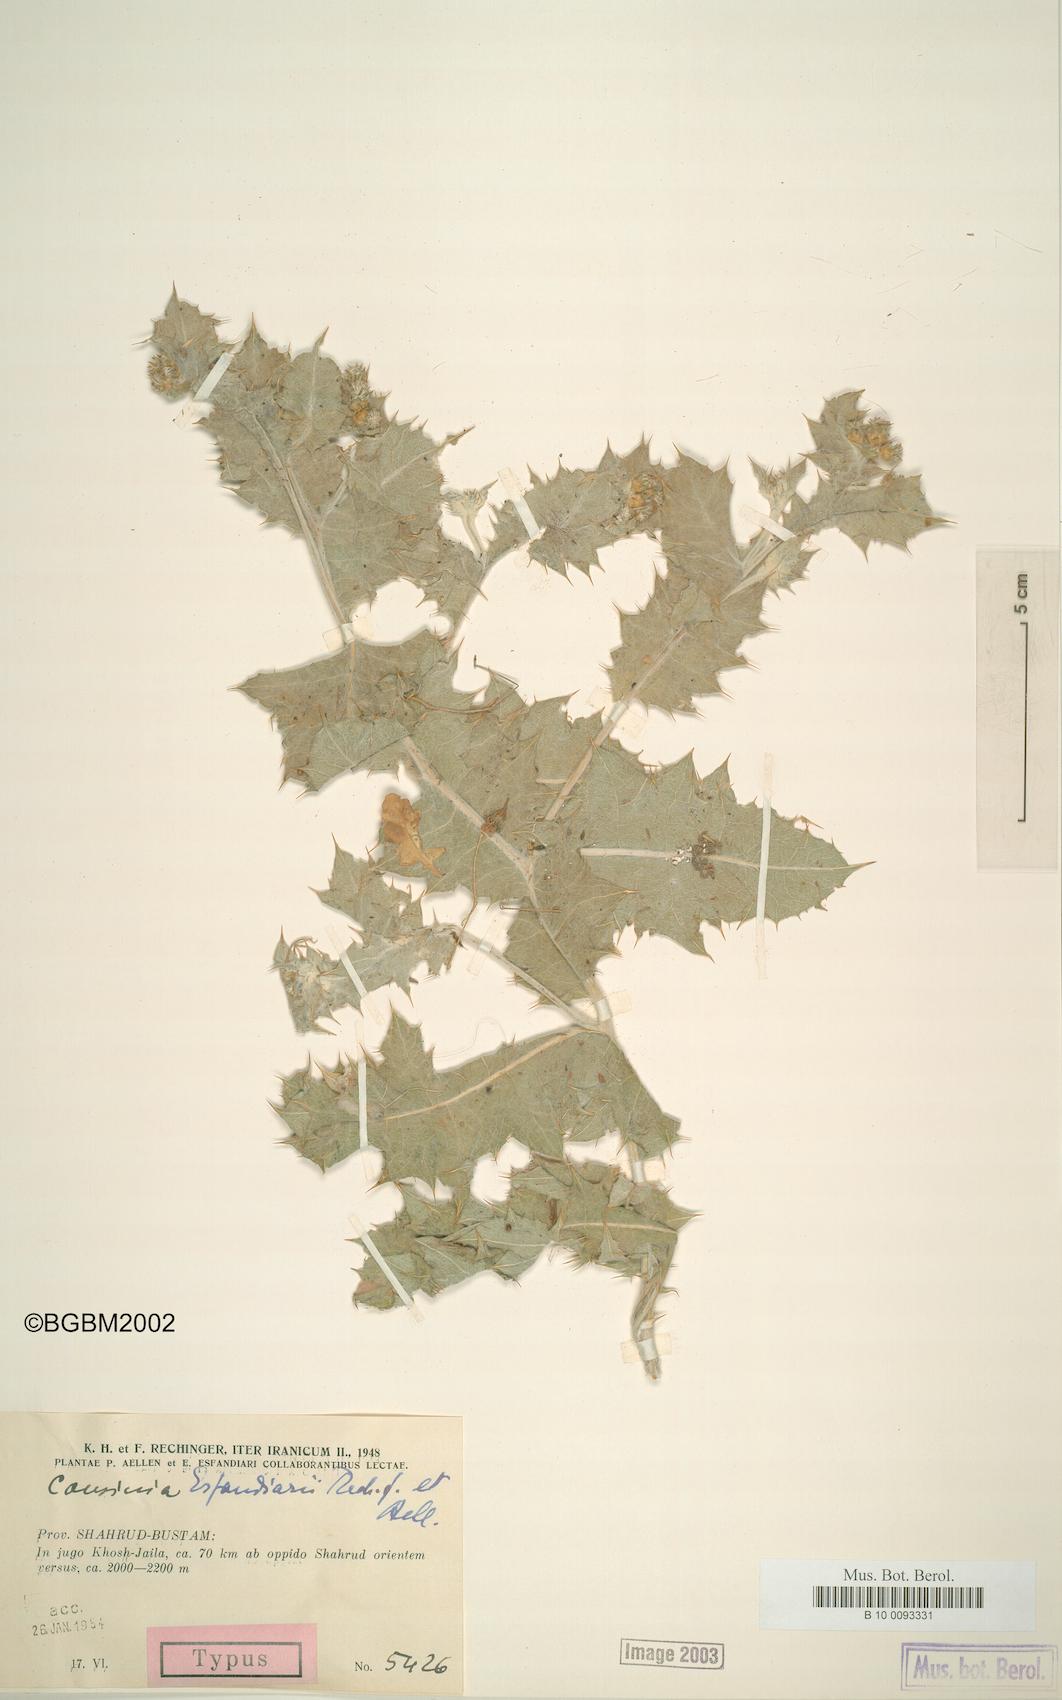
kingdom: Plantae
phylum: Tracheophyta
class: Magnoliopsida
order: Asterales
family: Asteraceae
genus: Cousinia
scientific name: Cousinia esfandiarii
